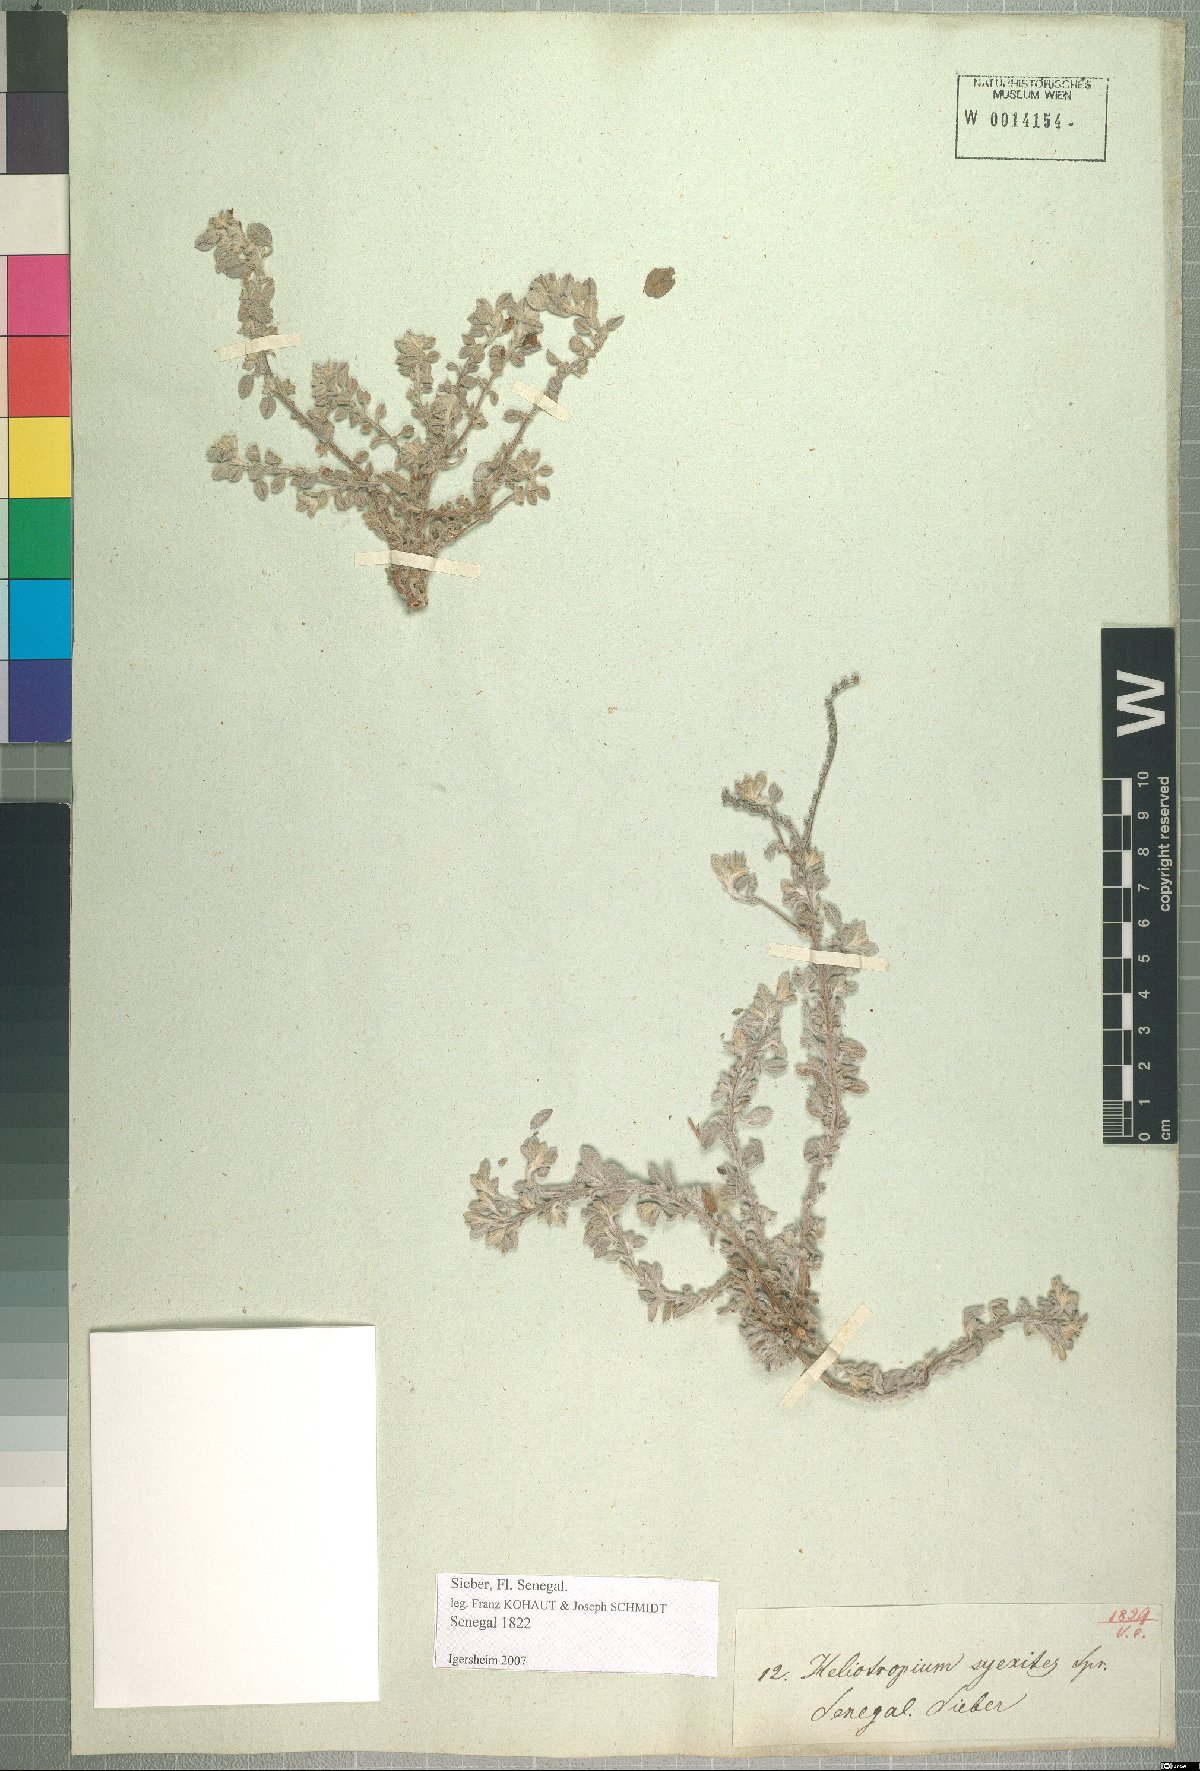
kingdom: Plantae
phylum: Tracheophyta
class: Magnoliopsida
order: Boraginales
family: Heliotropiaceae
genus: Euploca
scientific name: Euploca ovalifolia
